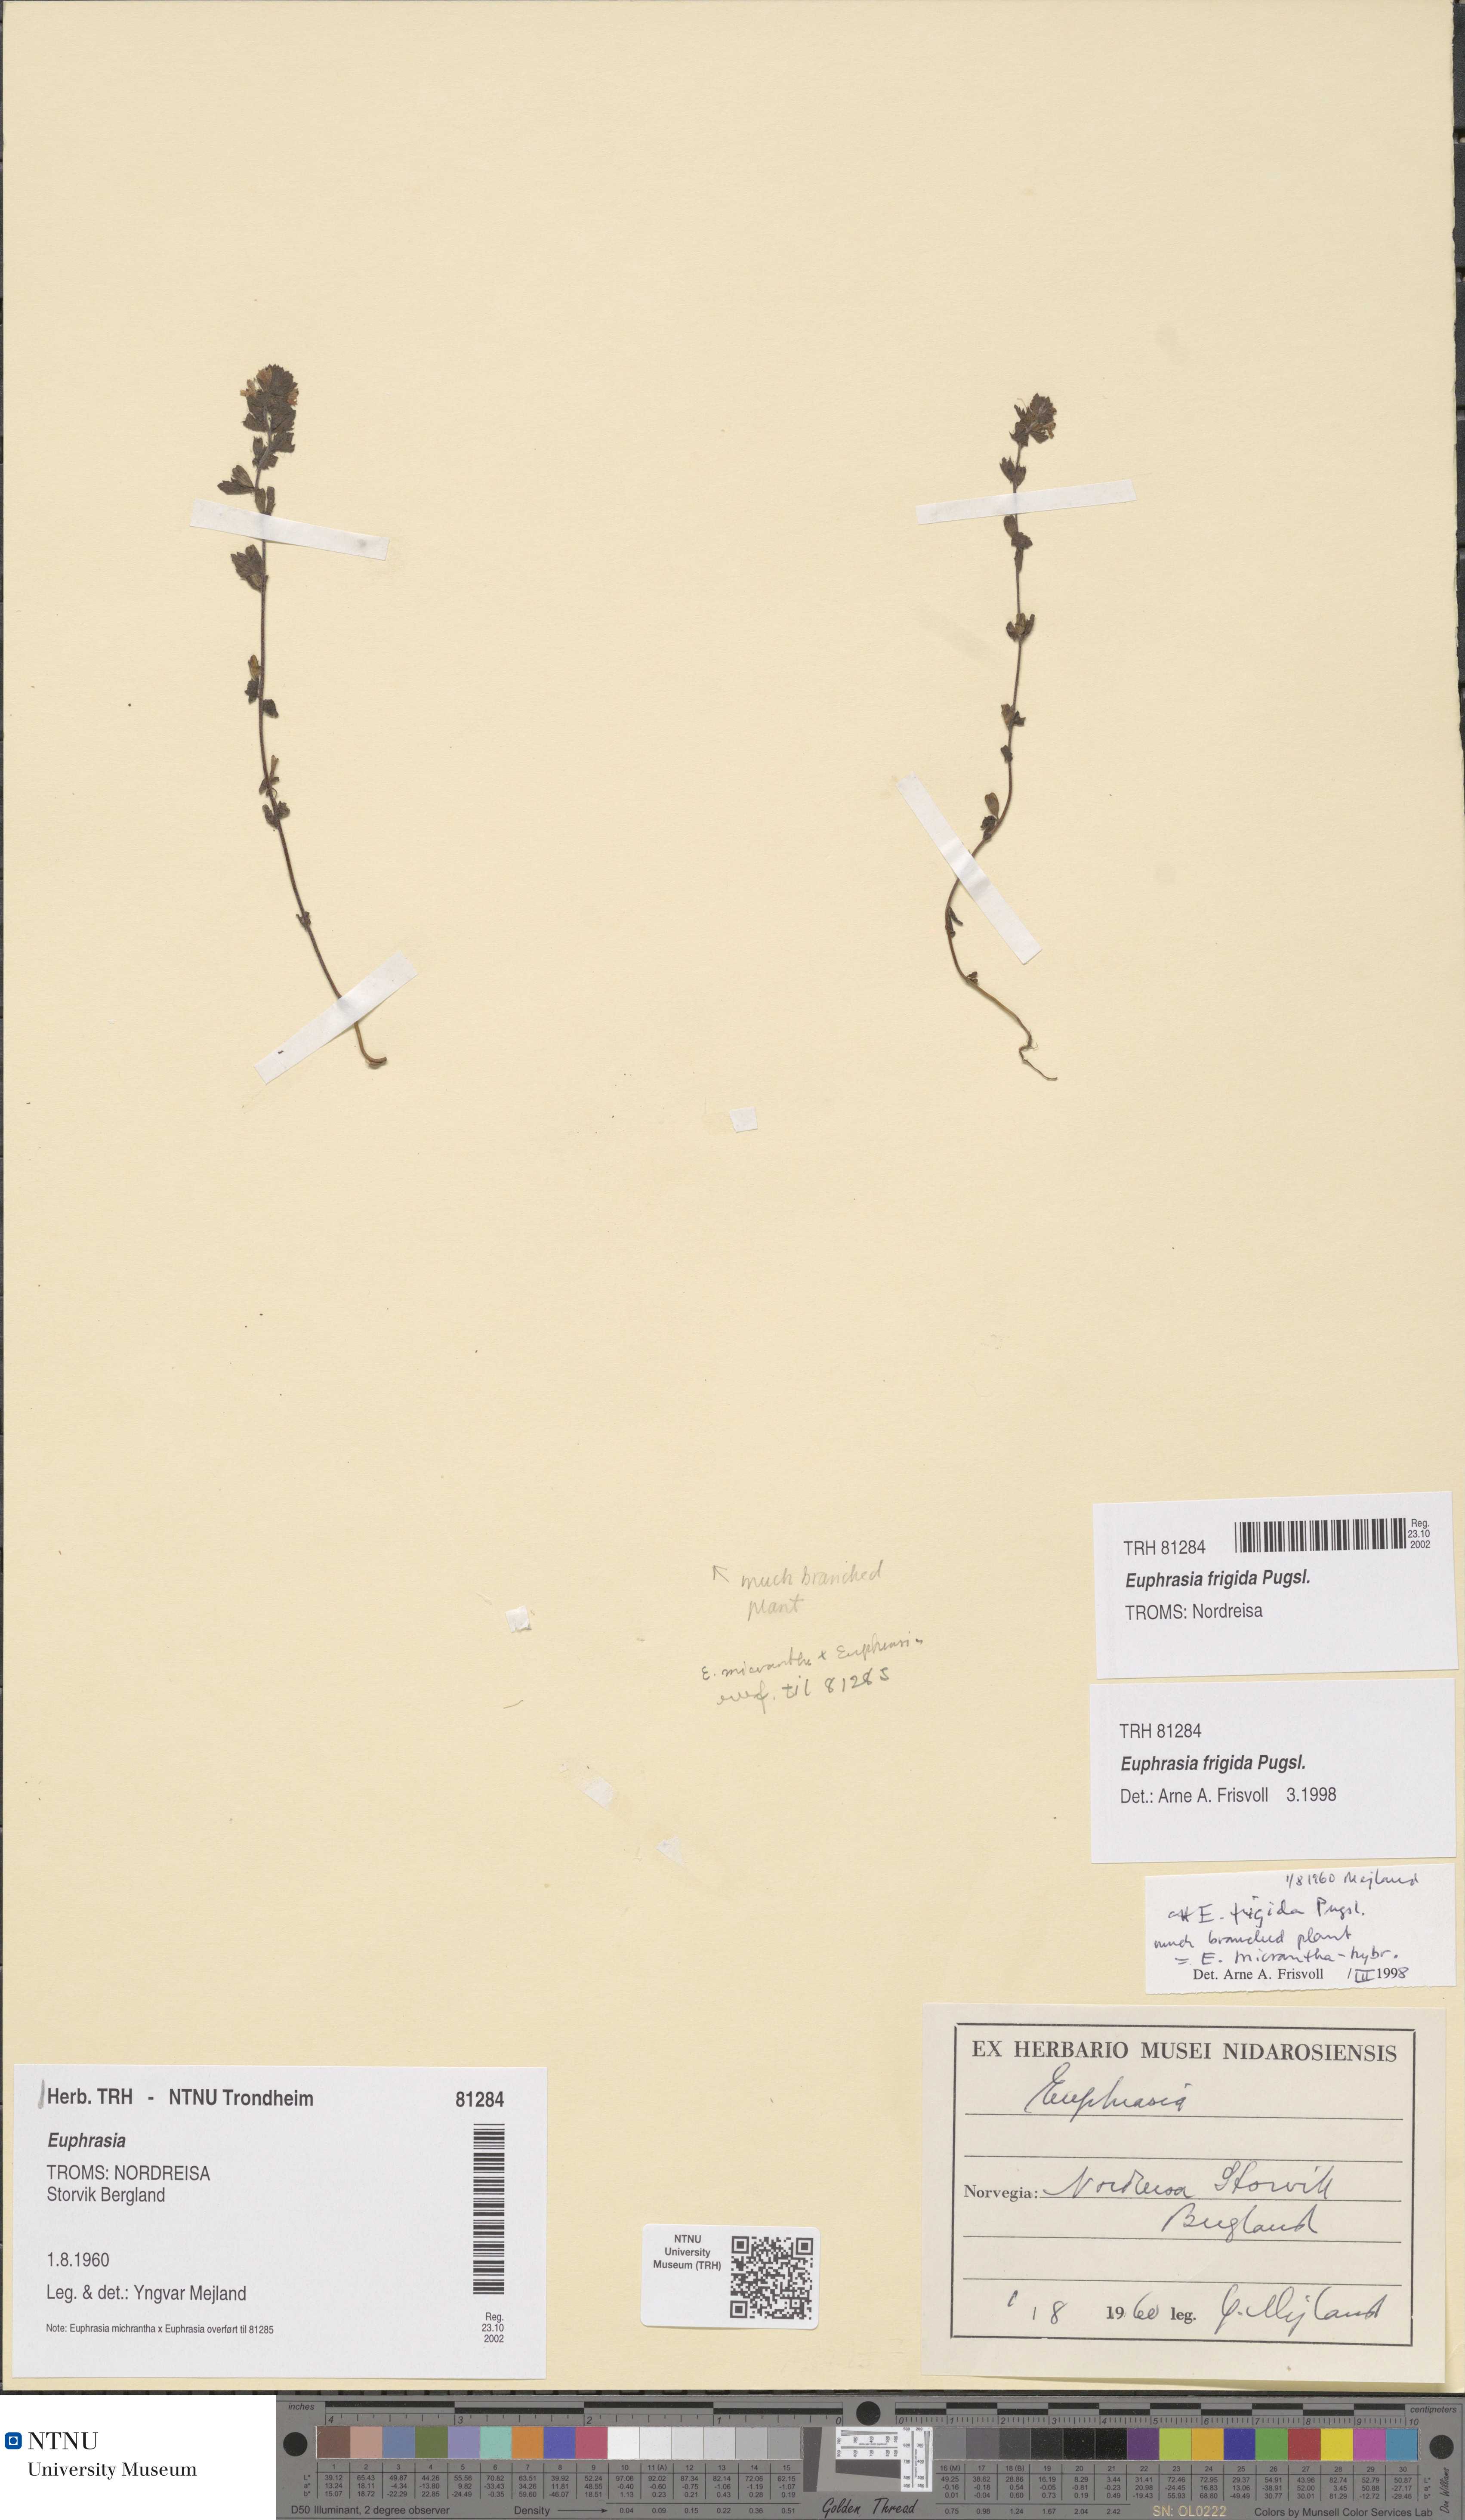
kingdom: Plantae
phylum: Tracheophyta
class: Magnoliopsida
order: Lamiales
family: Orobanchaceae
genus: Euphrasia
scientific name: Euphrasia wettsteinii
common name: Wettstein's eyebright
